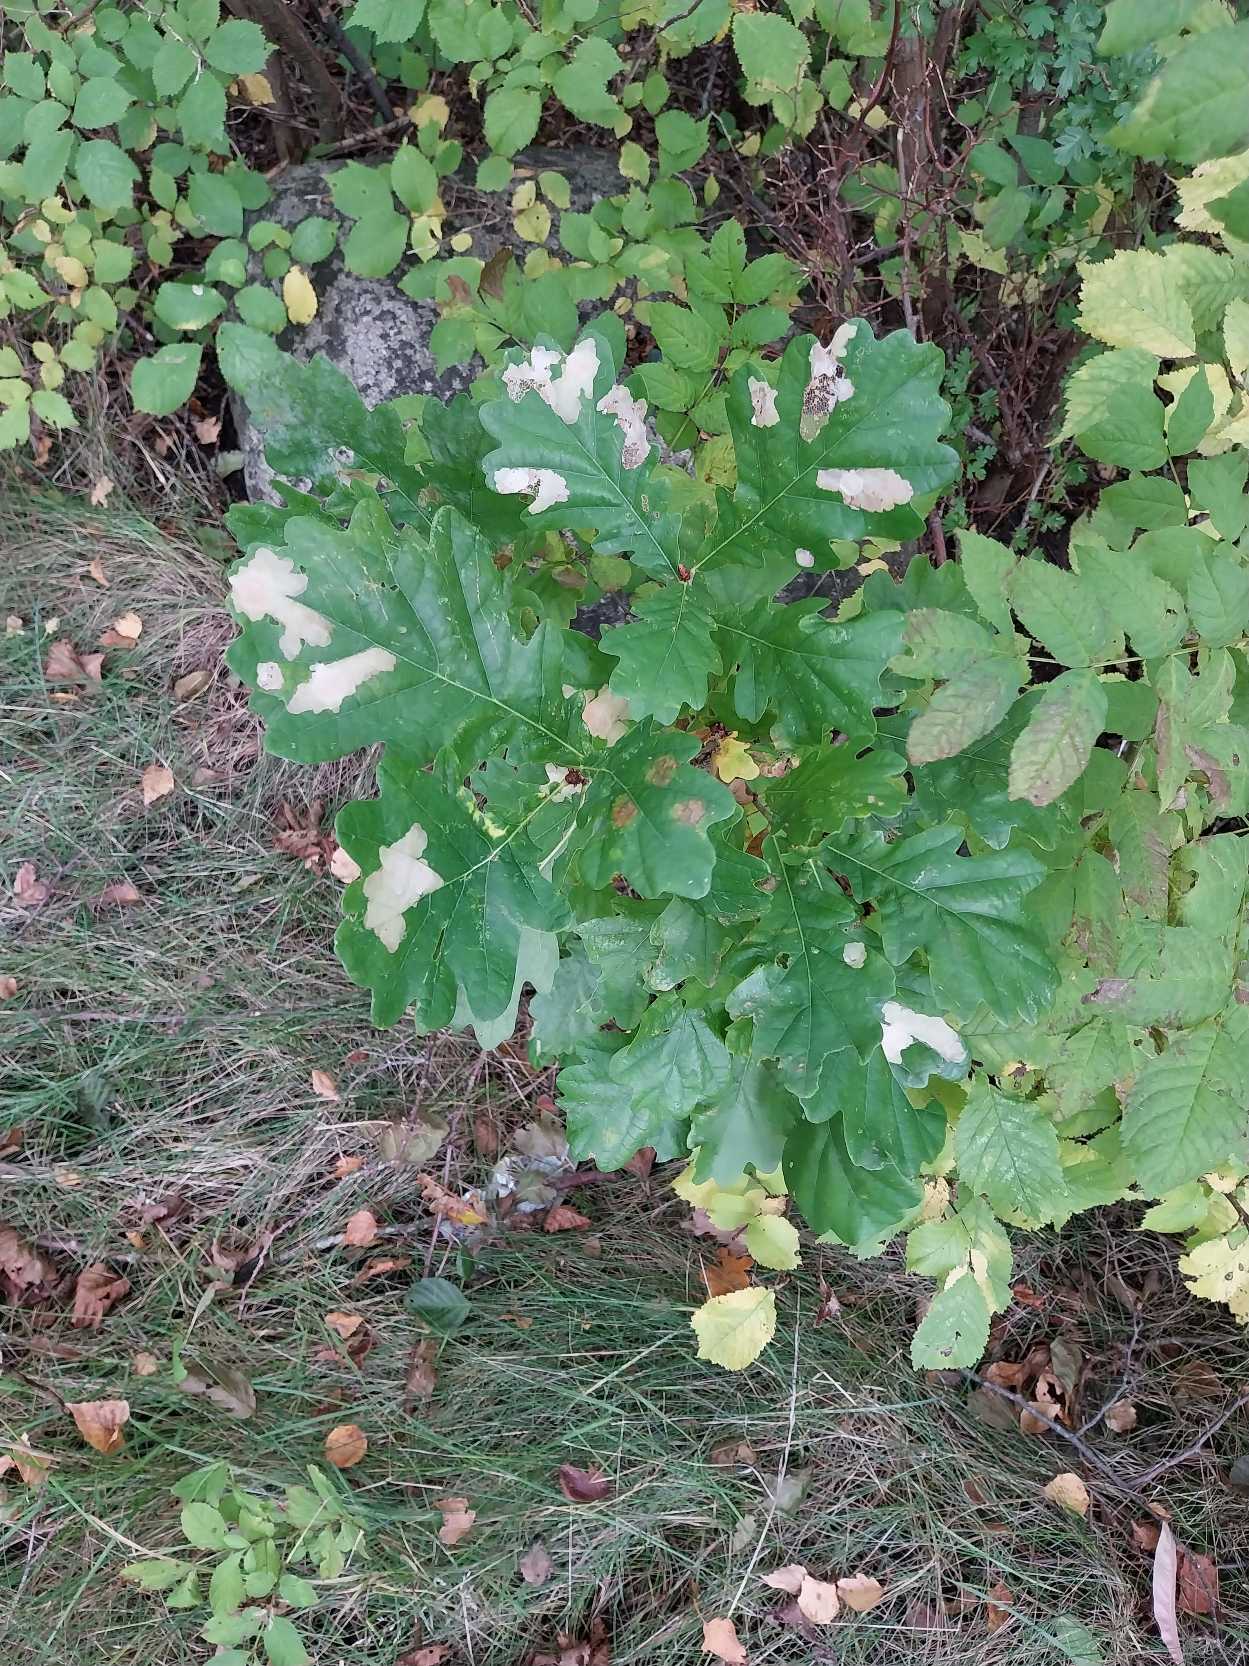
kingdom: Plantae
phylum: Tracheophyta
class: Magnoliopsida
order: Fagales
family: Fagaceae
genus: Quercus
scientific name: Quercus robur
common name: Stilk-eg/almindelig eg
